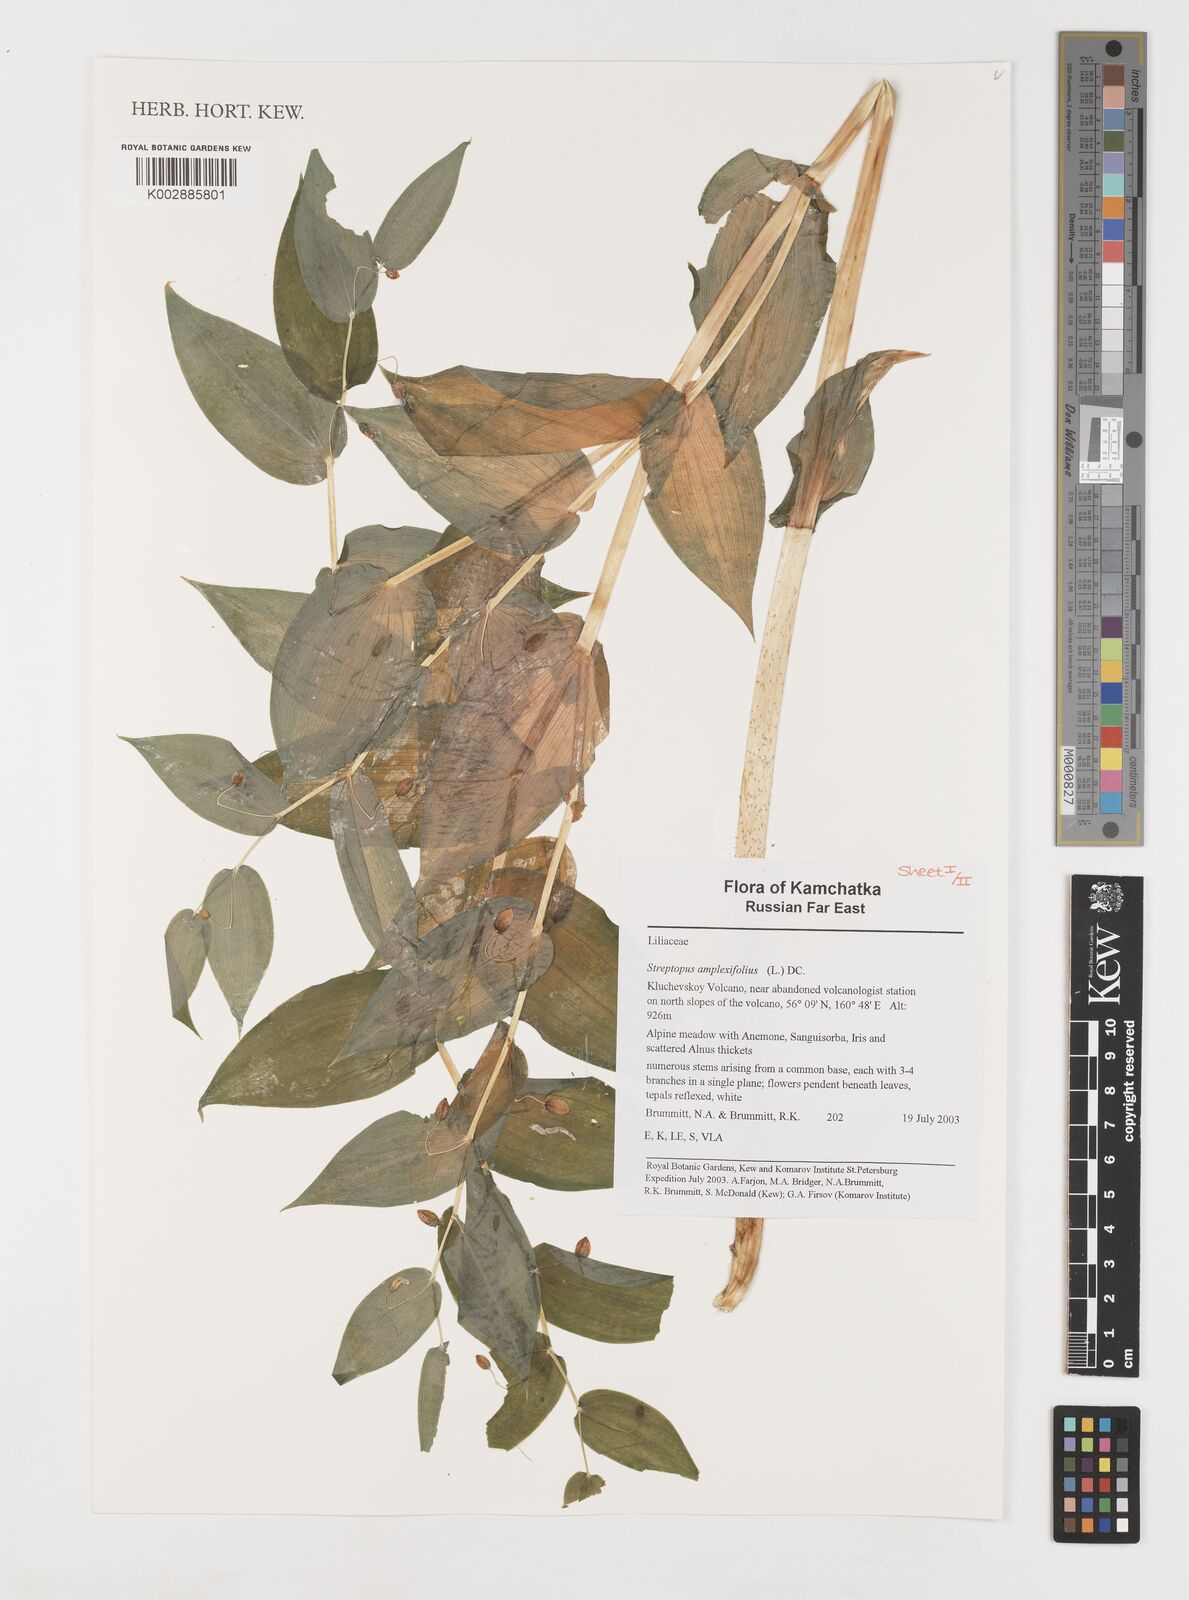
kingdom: Plantae
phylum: Tracheophyta
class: Liliopsida
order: Liliales
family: Liliaceae
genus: Streptopus
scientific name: Streptopus amplexifolius
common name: Clasp twisted stalk
